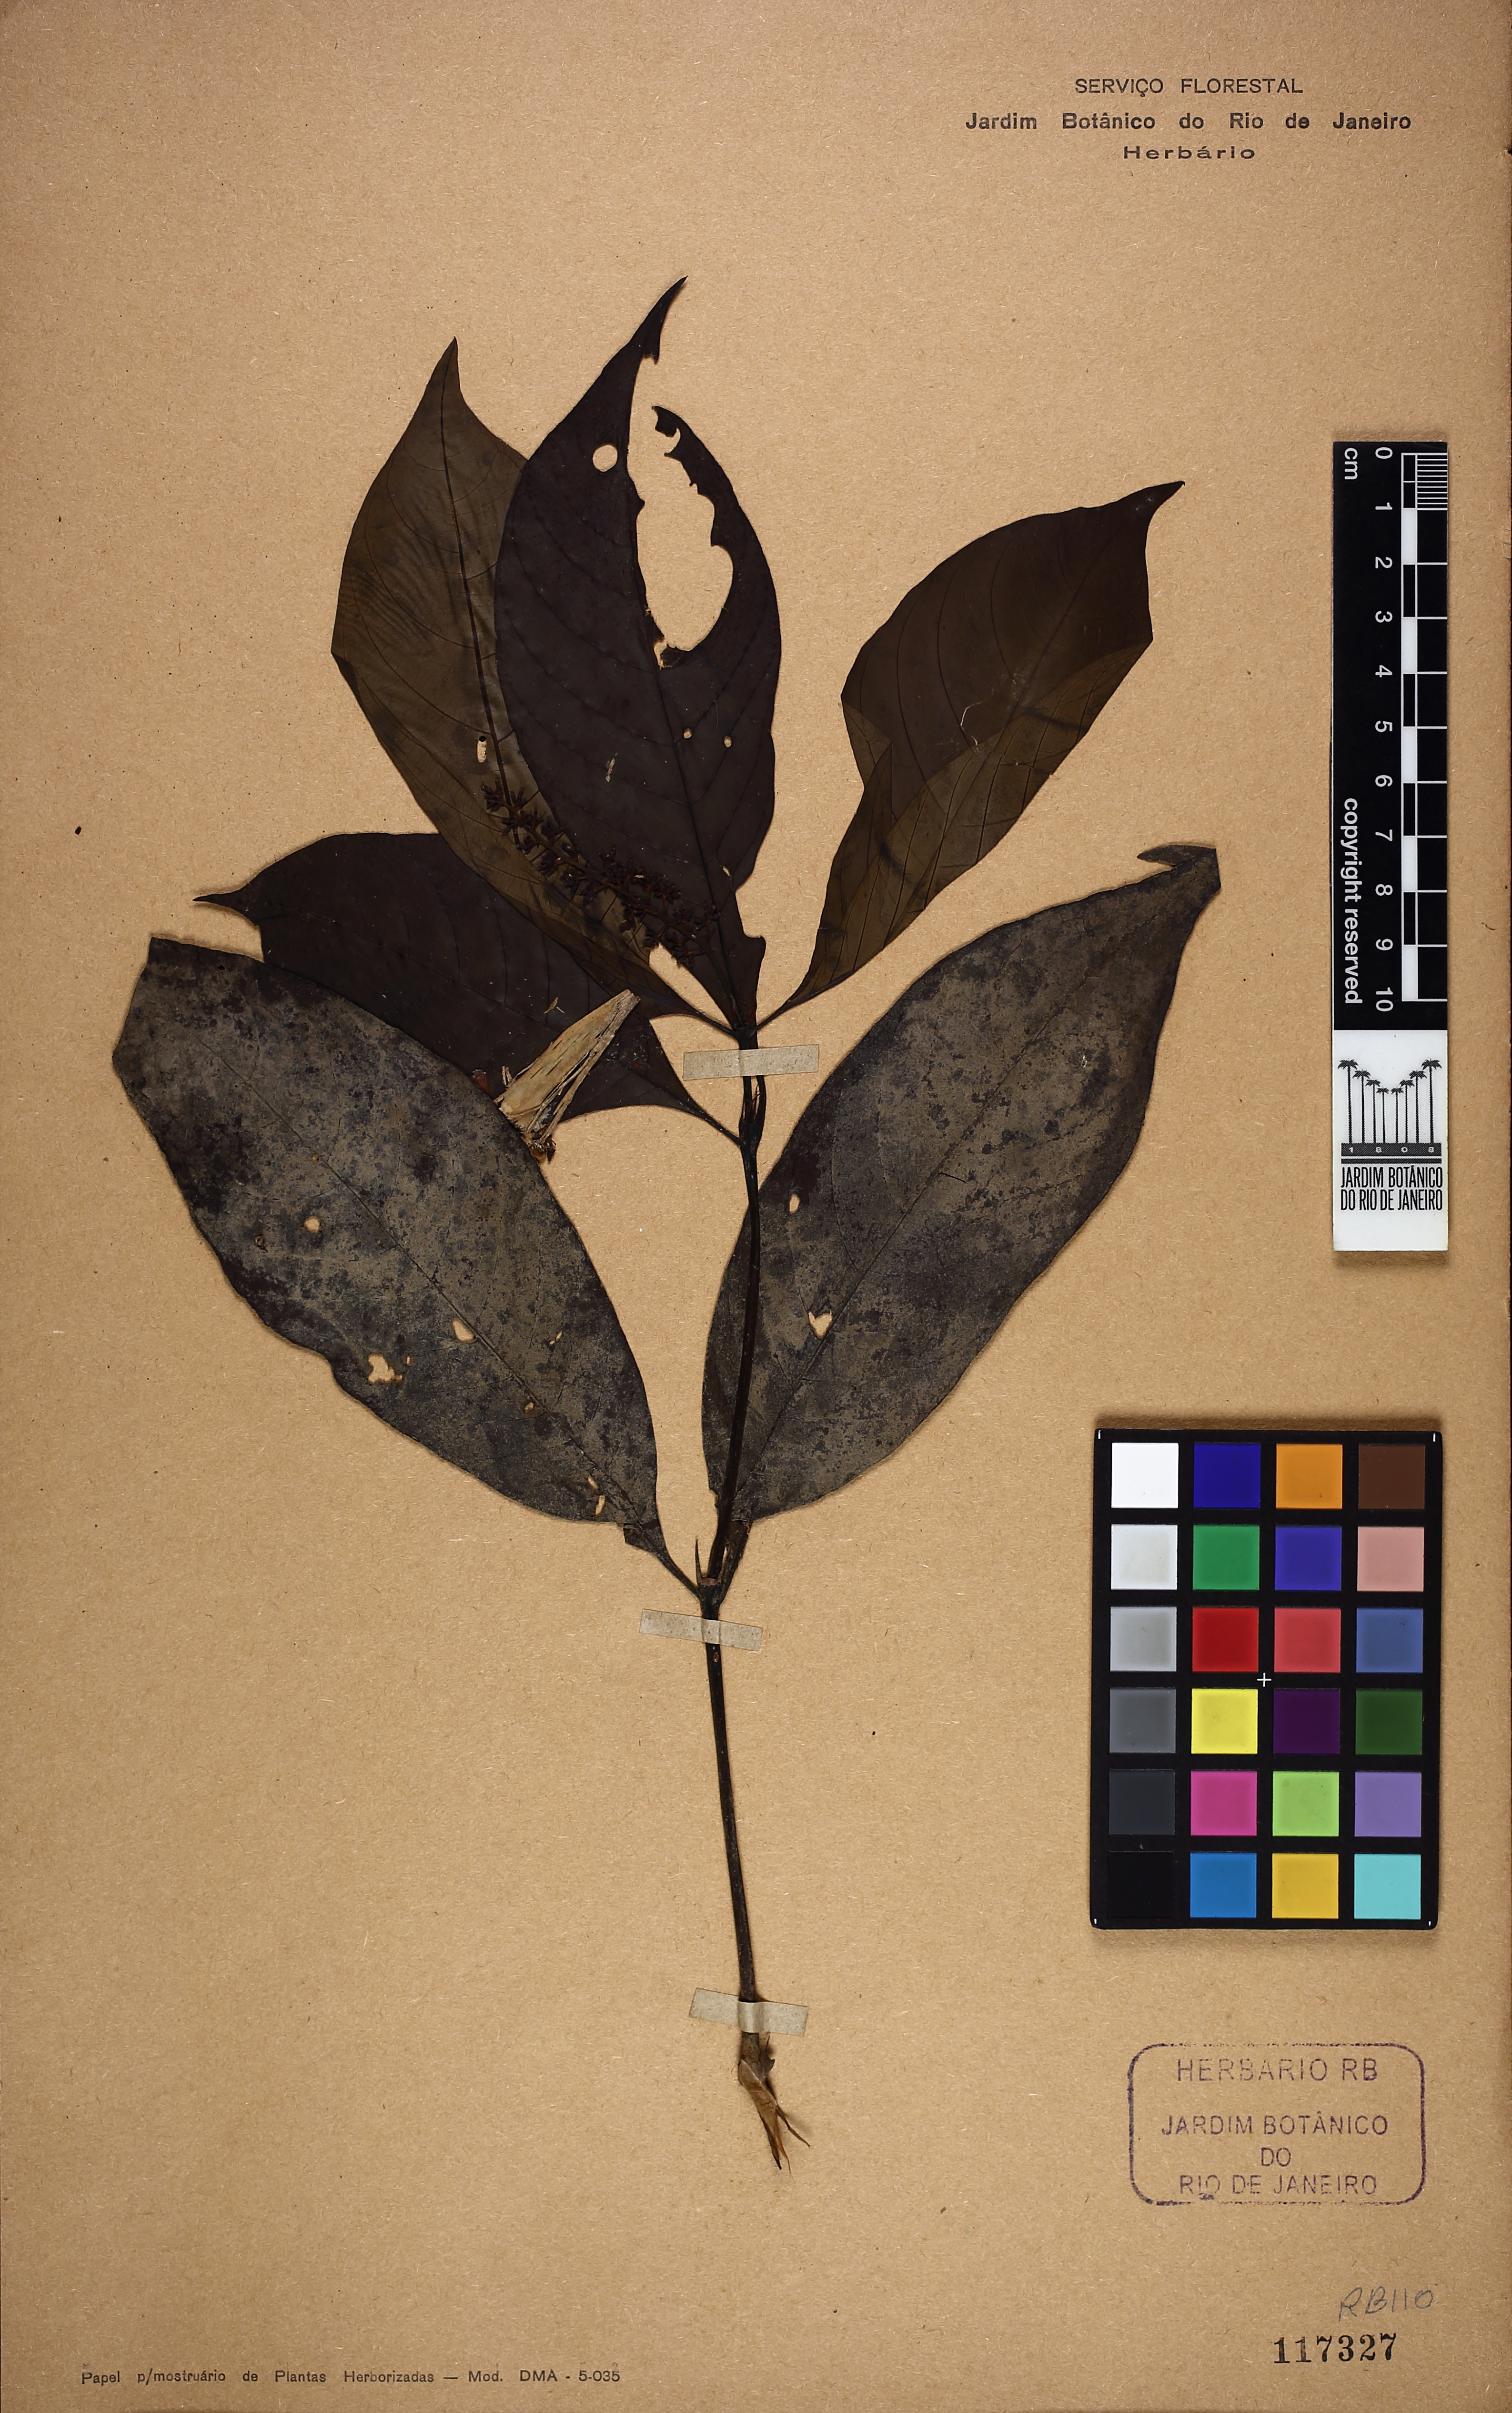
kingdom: Plantae
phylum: Tracheophyta
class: Magnoliopsida
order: Gentianales
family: Rubiaceae
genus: Palicourea
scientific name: Palicourea subfusca
